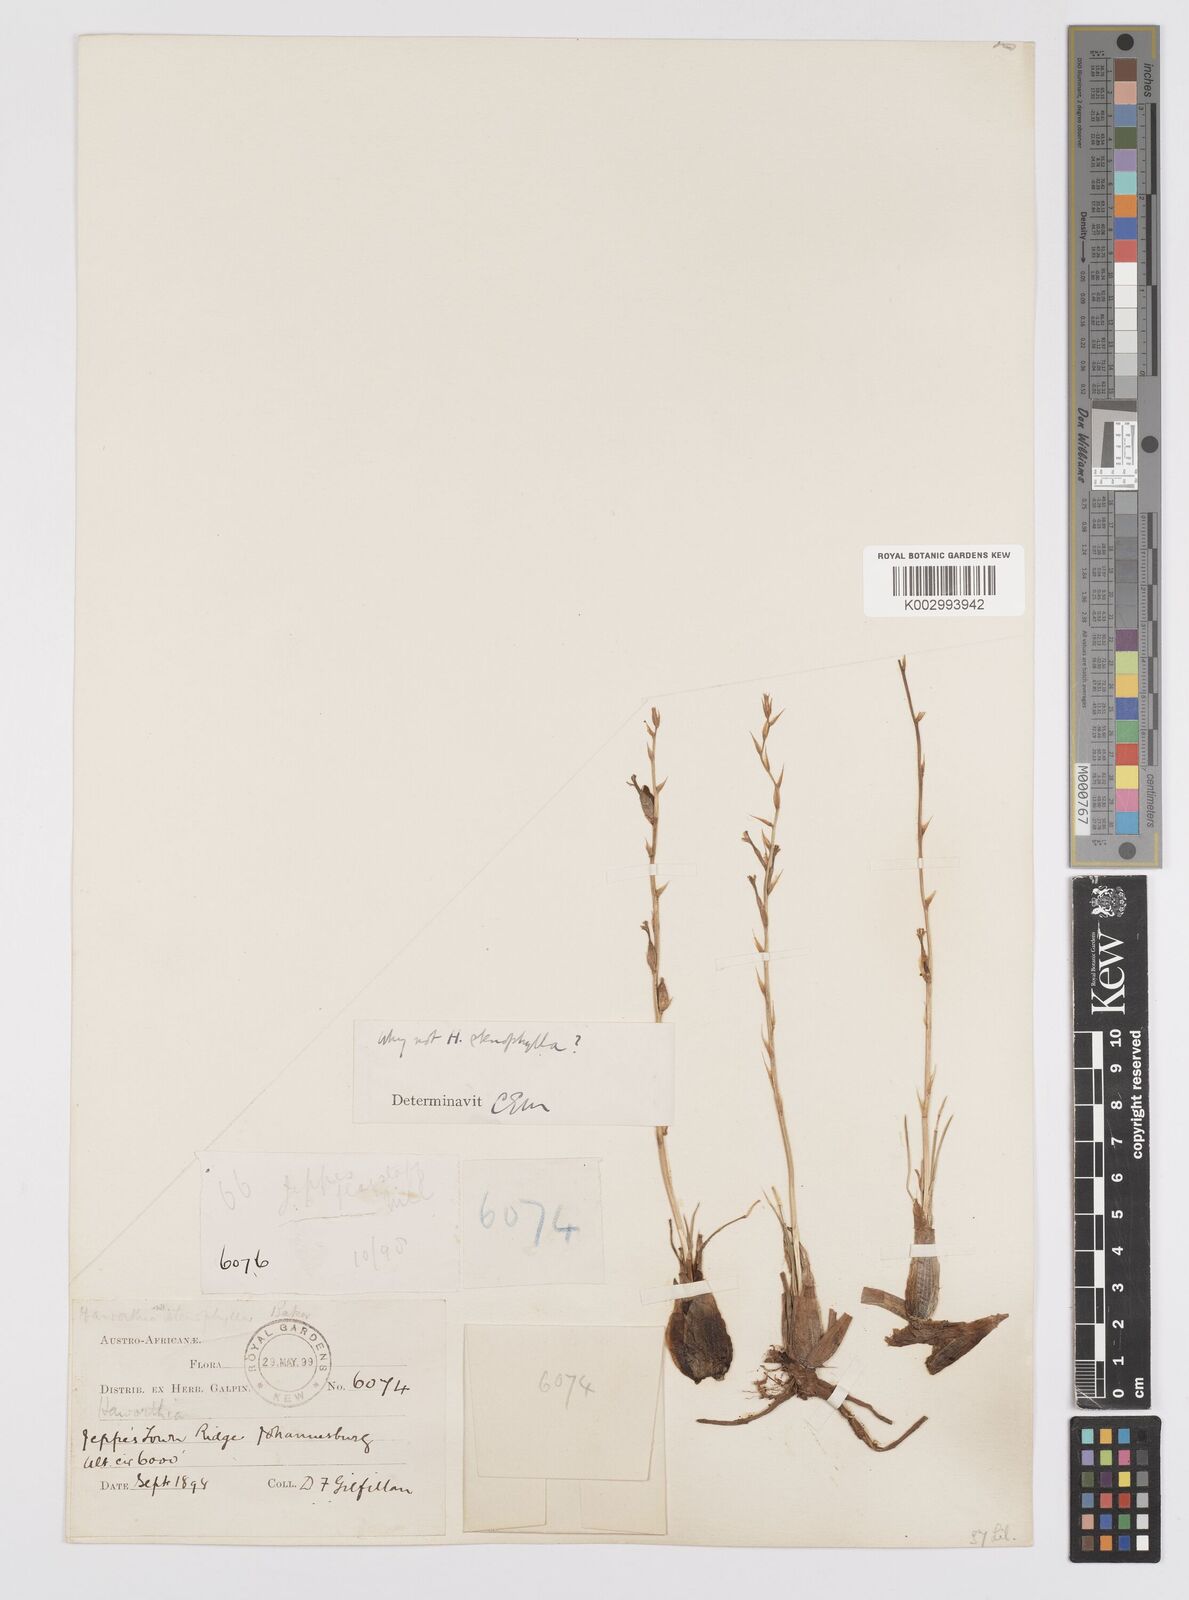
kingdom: Plantae
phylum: Tracheophyta
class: Liliopsida
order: Asparagales
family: Asphodelaceae
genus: Aloe
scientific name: Aloe welwitschii
